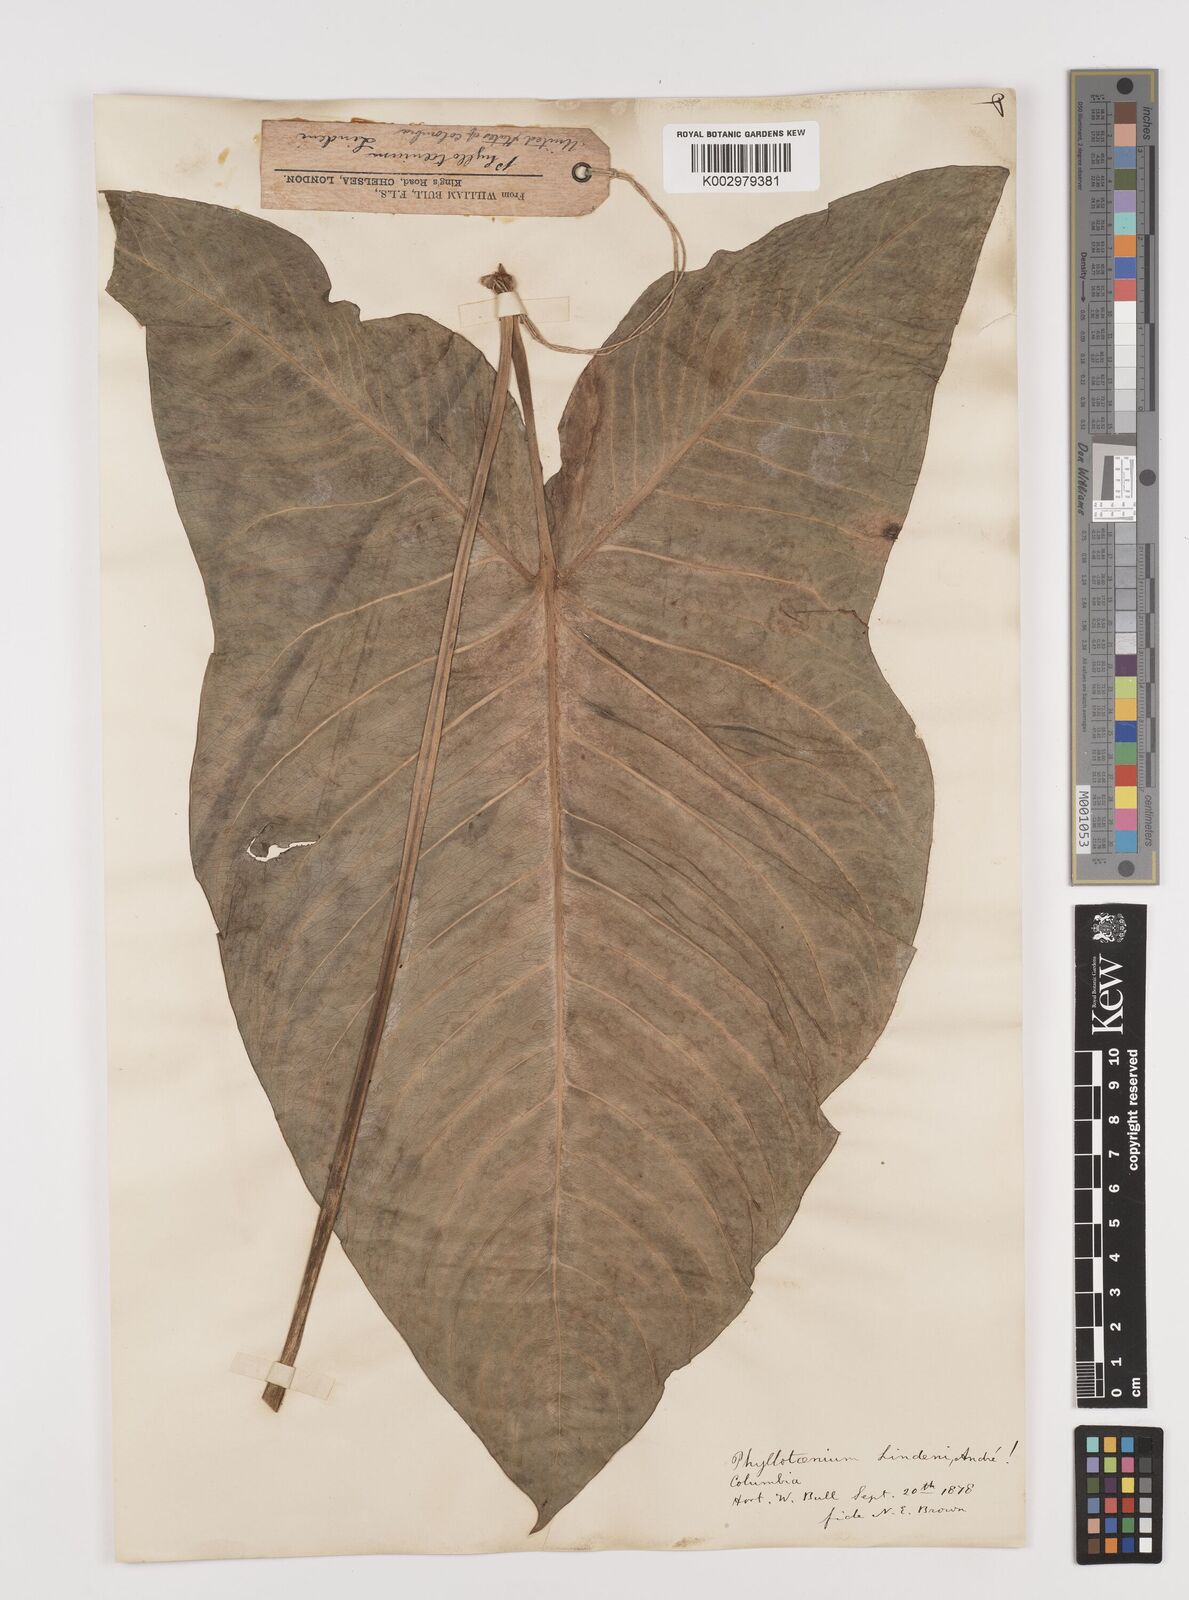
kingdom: Plantae
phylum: Tracheophyta
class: Liliopsida
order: Alismatales
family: Araceae
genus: Caladium
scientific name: Caladium
